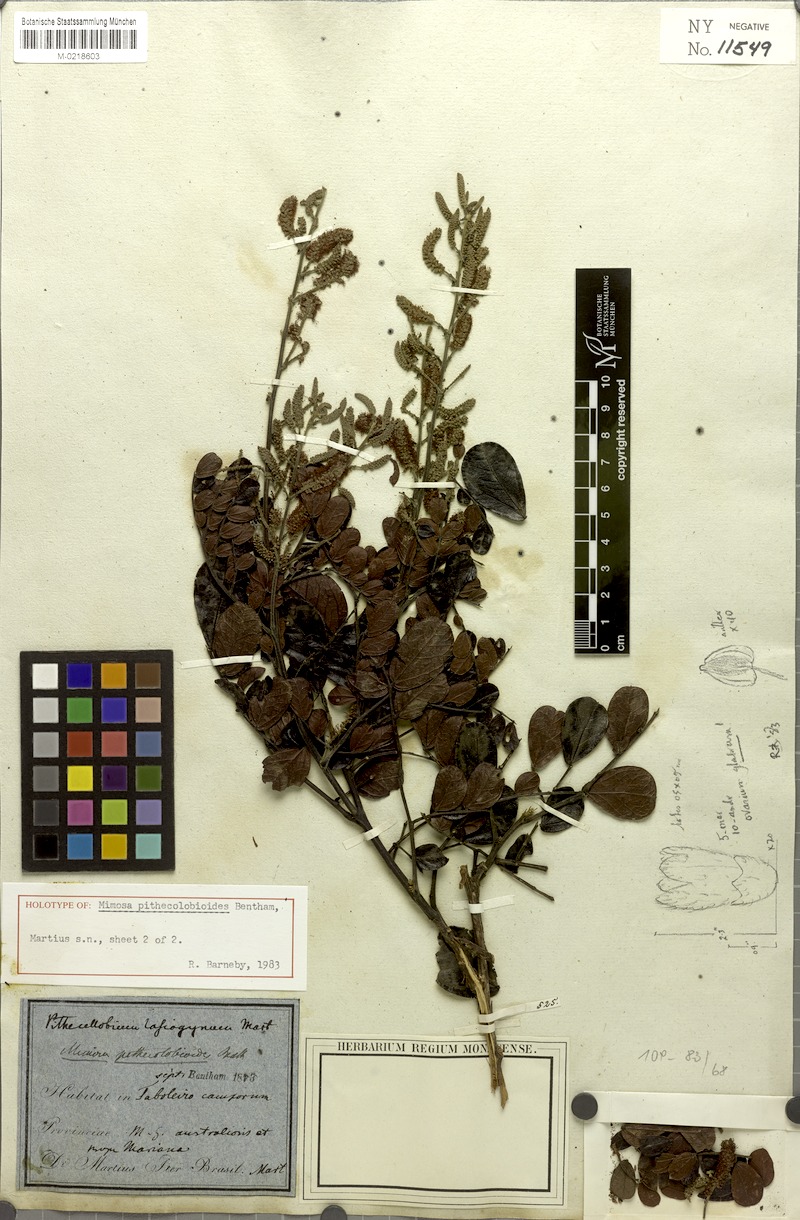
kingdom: Plantae
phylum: Tracheophyta
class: Magnoliopsida
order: Fabales
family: Fabaceae
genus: Mimosa
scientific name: Mimosa pithecolobioides
